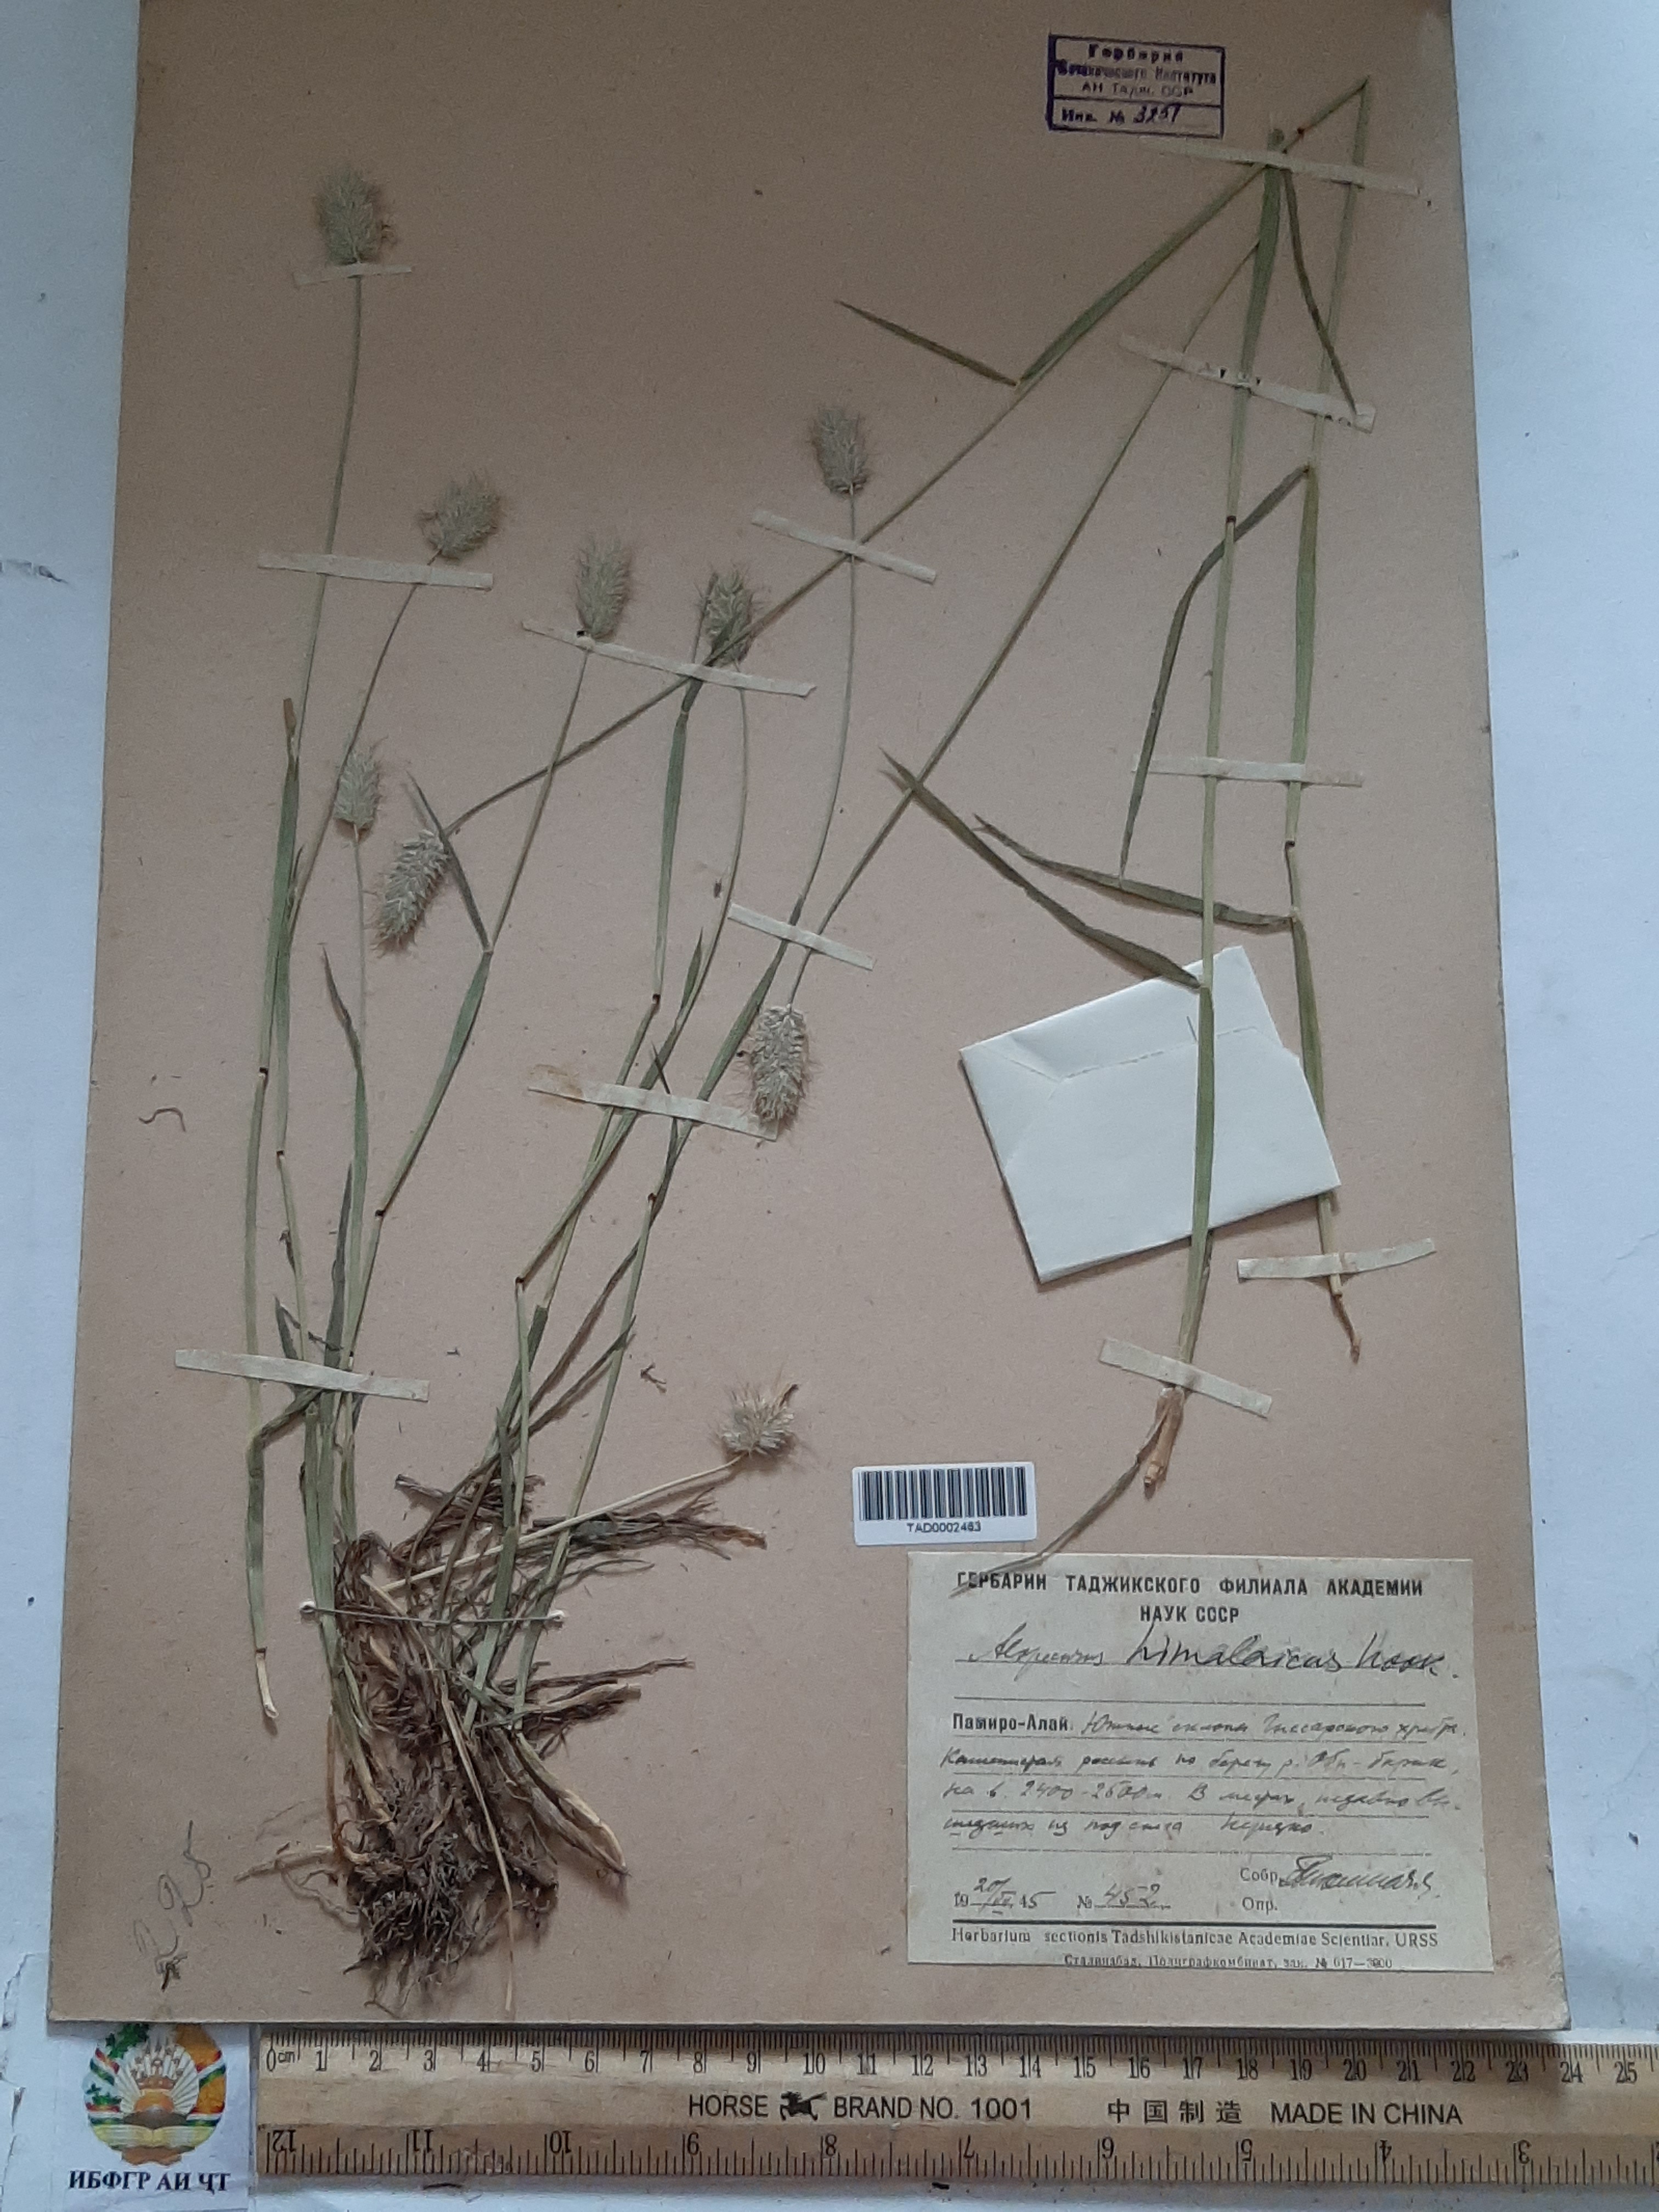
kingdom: Plantae
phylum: Tracheophyta
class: Liliopsida
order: Poales
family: Poaceae
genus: Alopecurus
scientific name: Alopecurus himalaicus
